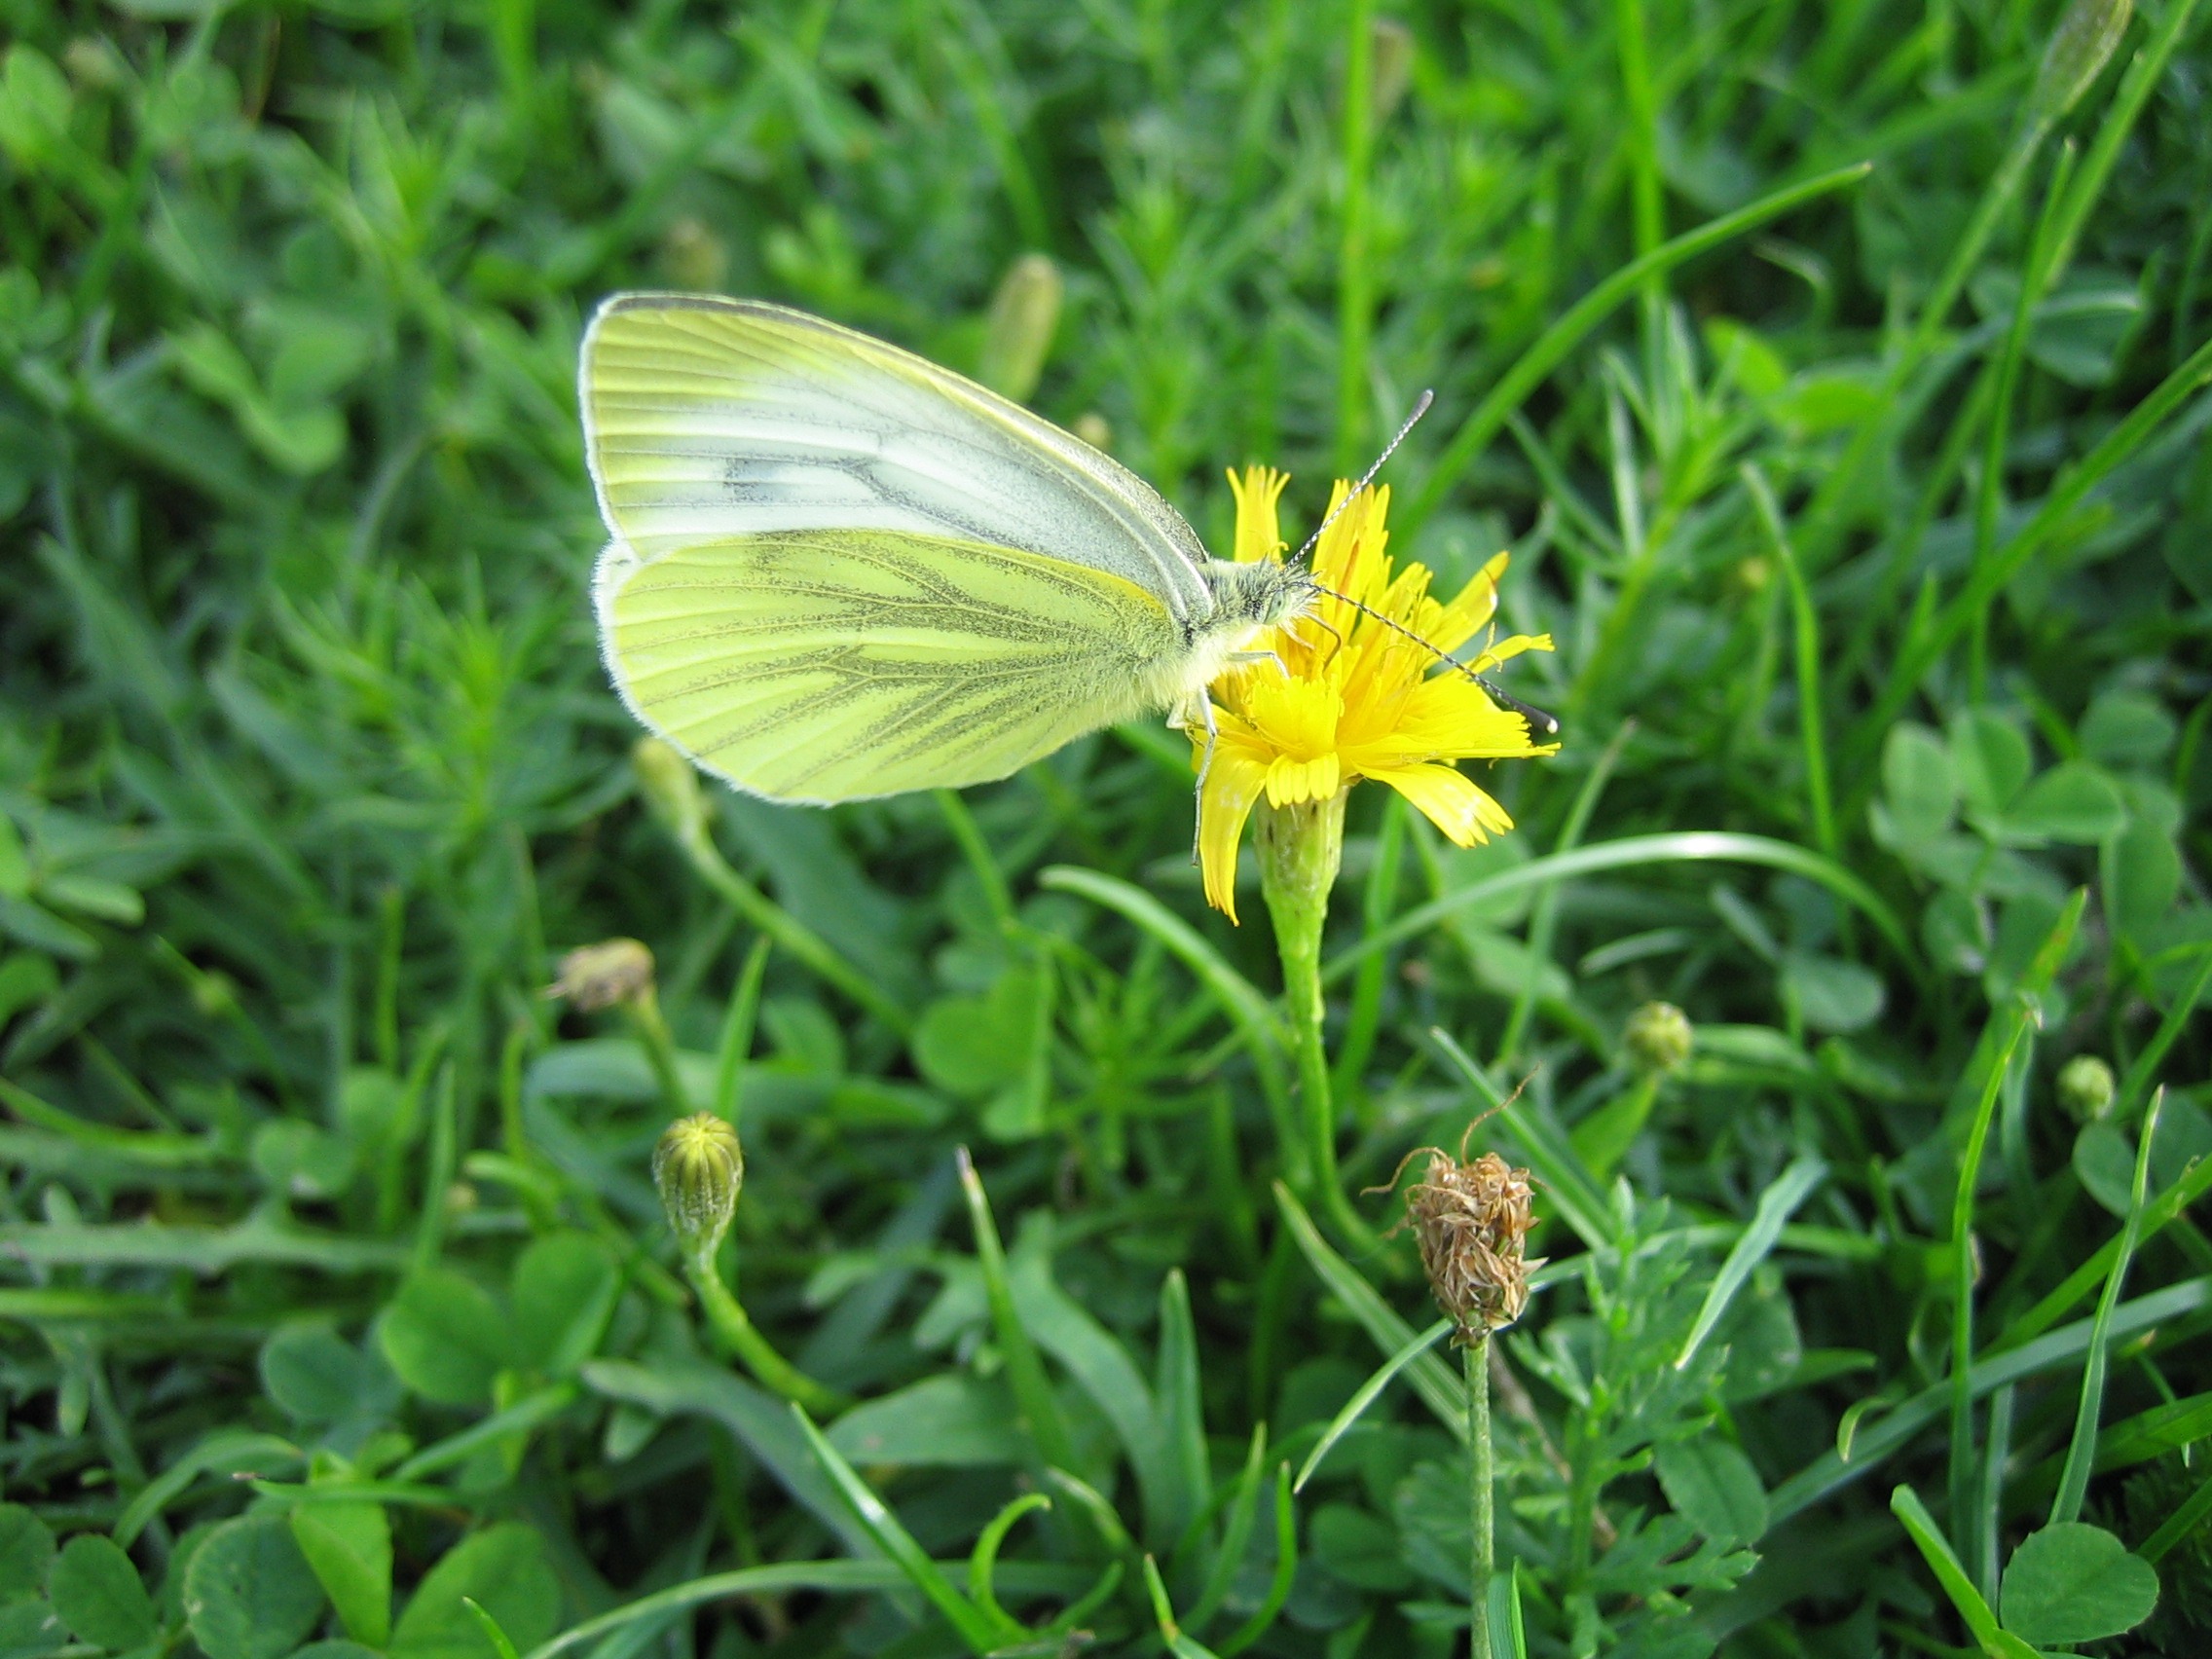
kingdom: Animalia
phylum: Arthropoda
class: Insecta
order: Lepidoptera
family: Pieridae
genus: Pieris
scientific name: Pieris napi
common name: Grønåret kålsommerfugl
